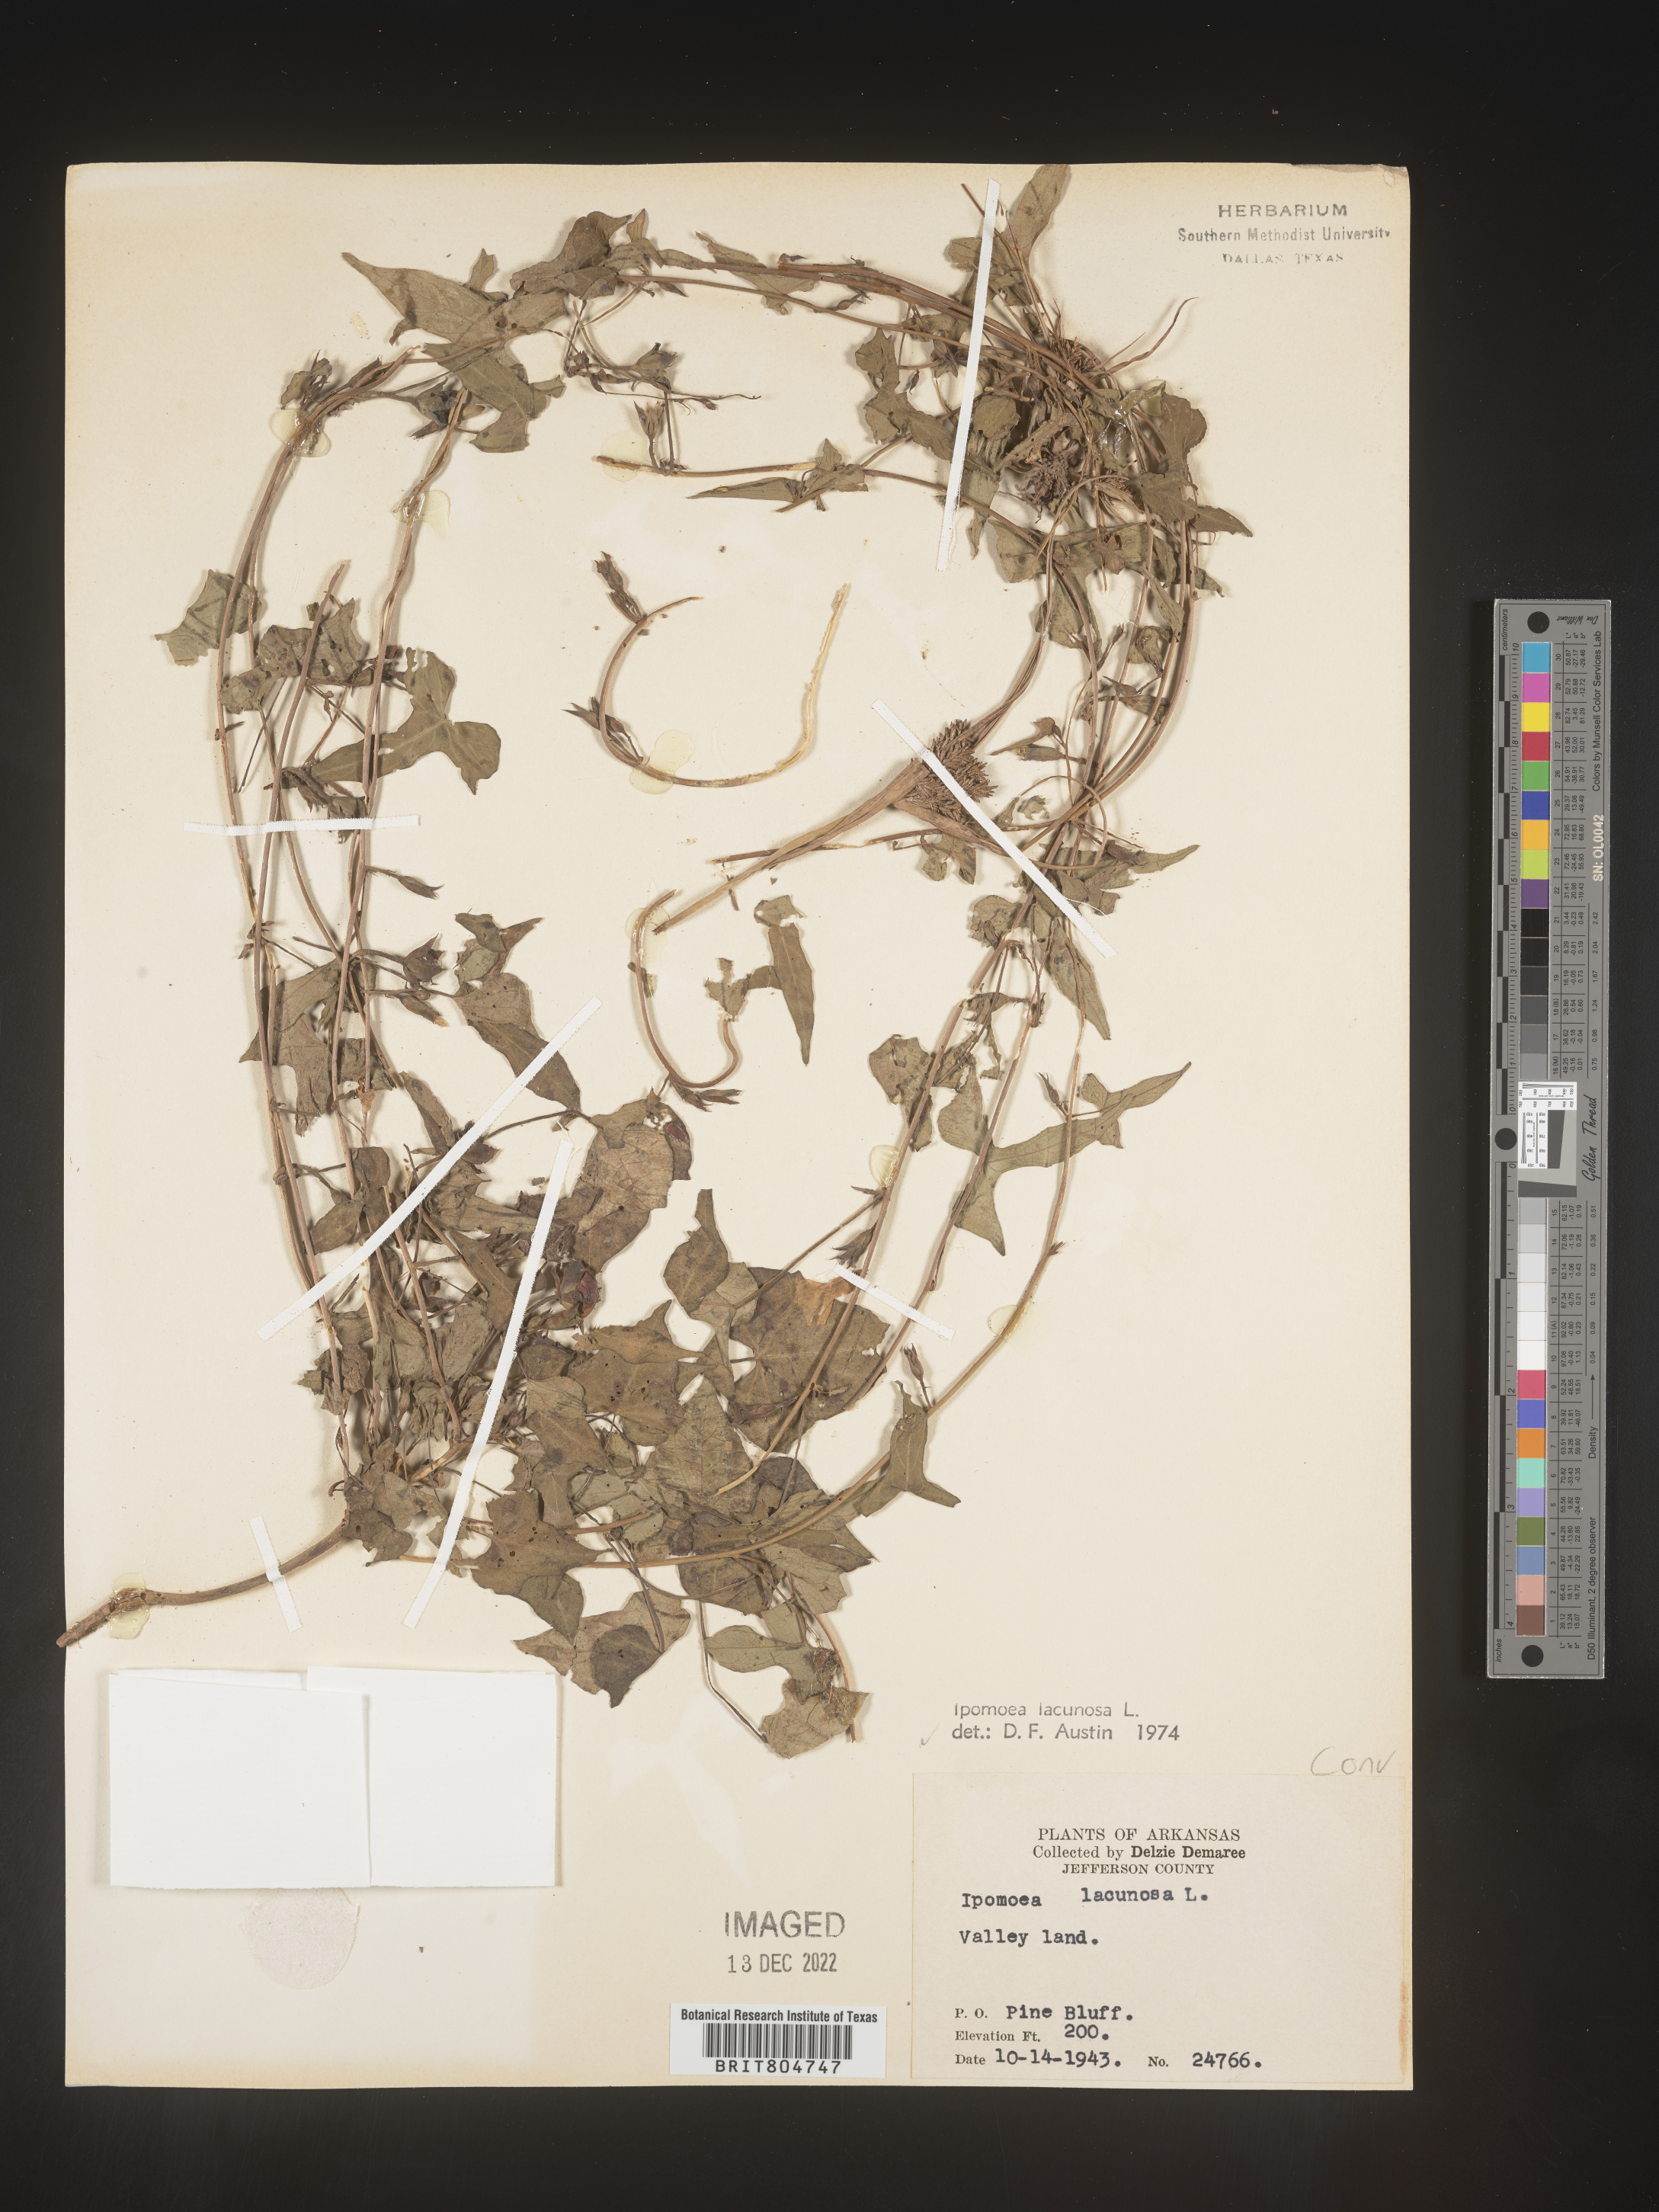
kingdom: Plantae
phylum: Tracheophyta
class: Magnoliopsida
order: Solanales
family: Convolvulaceae
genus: Ipomoea
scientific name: Ipomoea lacunosa
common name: White morning-glory
